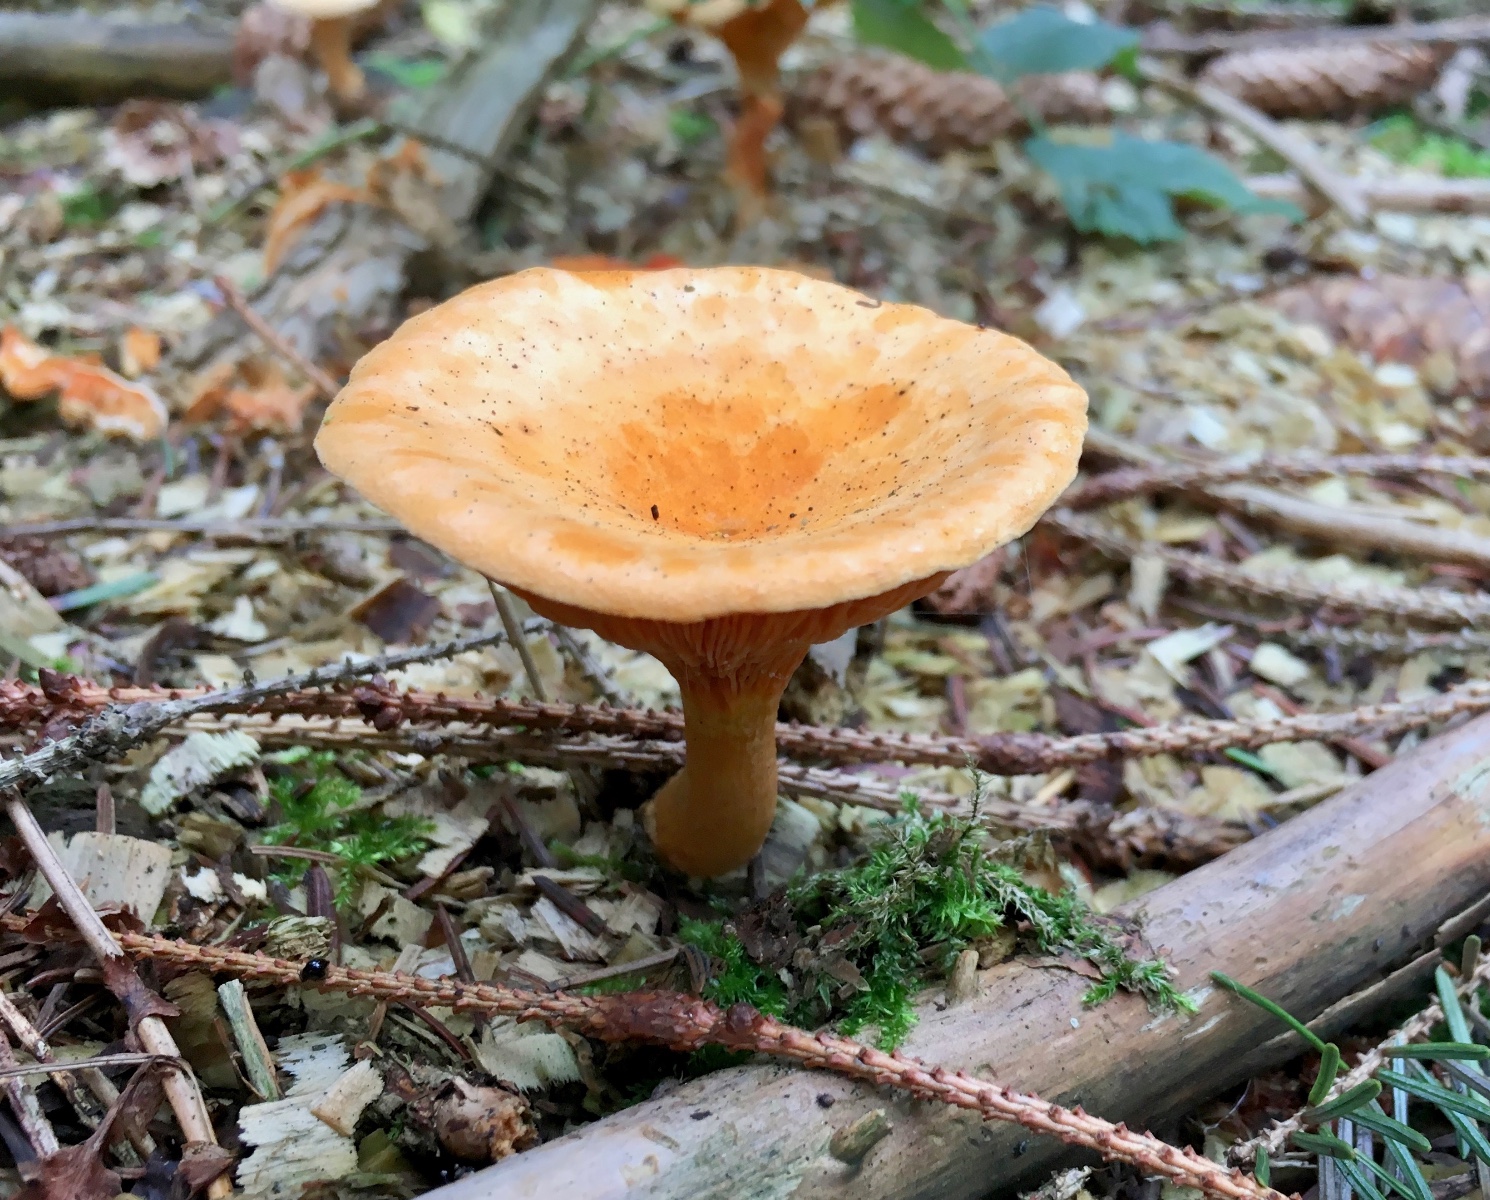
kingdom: Fungi
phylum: Basidiomycota
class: Agaricomycetes
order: Boletales
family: Hygrophoropsidaceae
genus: Hygrophoropsis
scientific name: Hygrophoropsis aurantiaca
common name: almindelig orangekantarel
